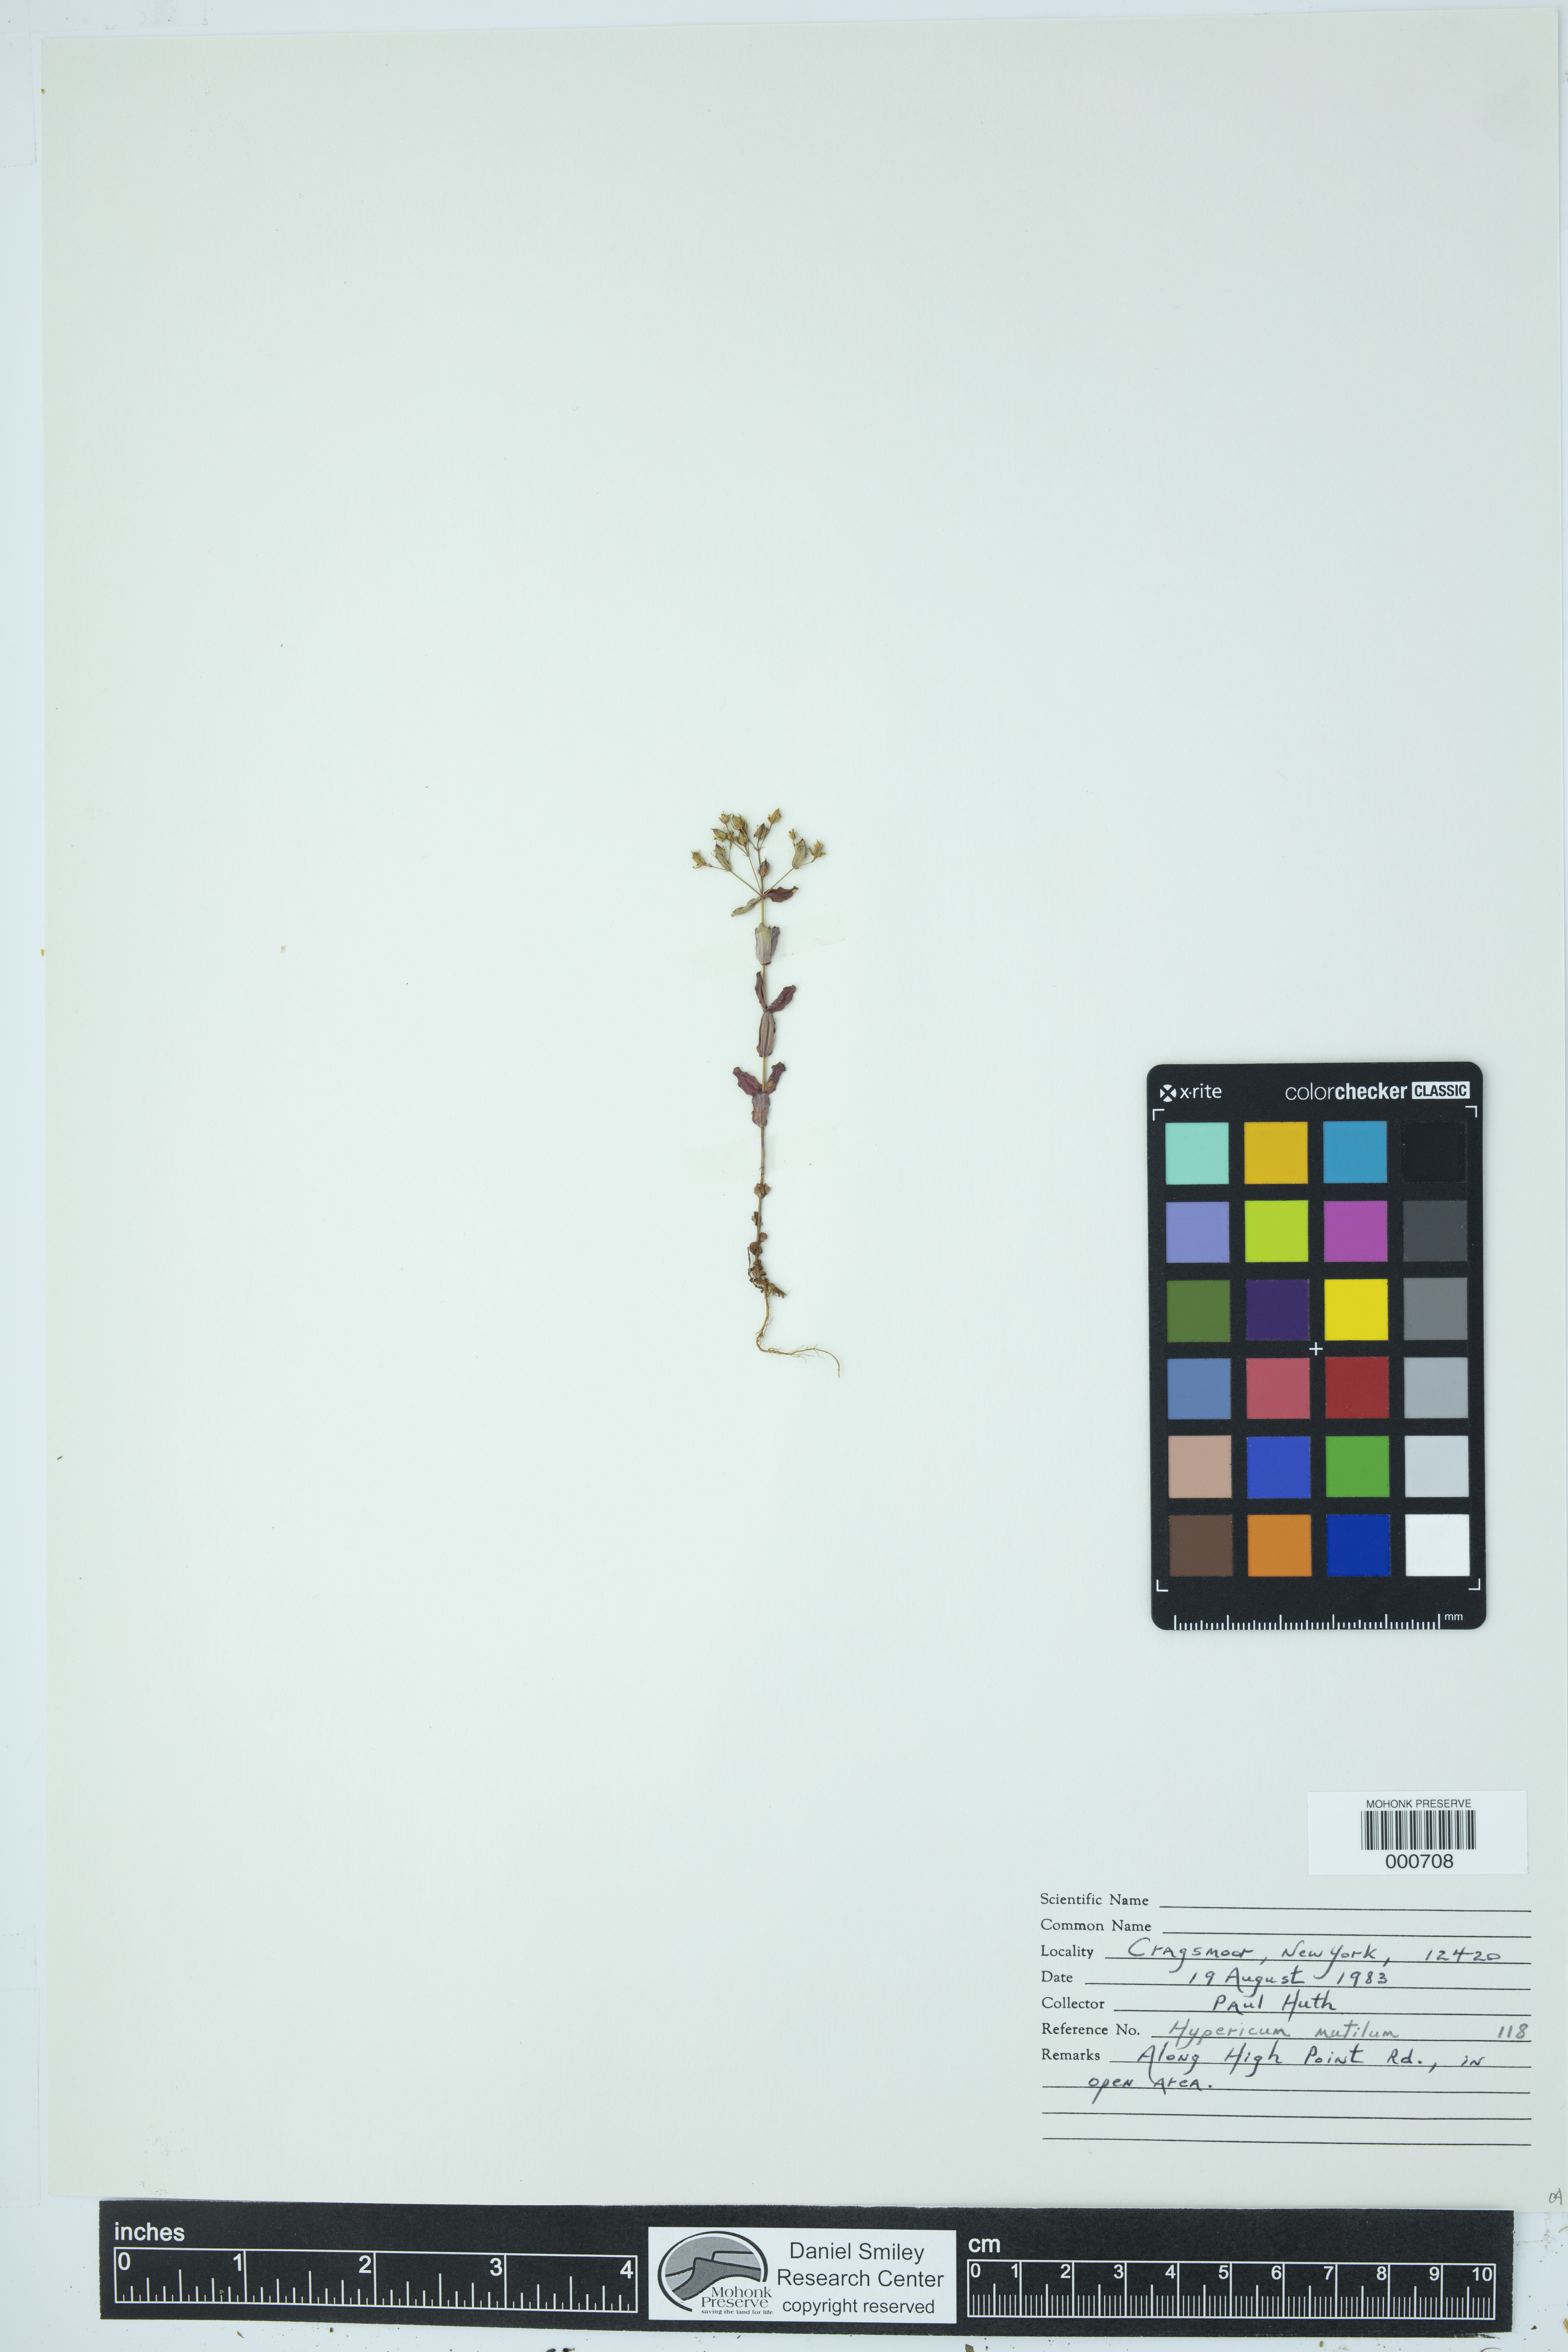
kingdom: Plantae
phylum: Tracheophyta
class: Magnoliopsida
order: Malpighiales
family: Hypericaceae
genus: Hypericum
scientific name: Hypericum mutilum
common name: Dwarf st. john's-wort
